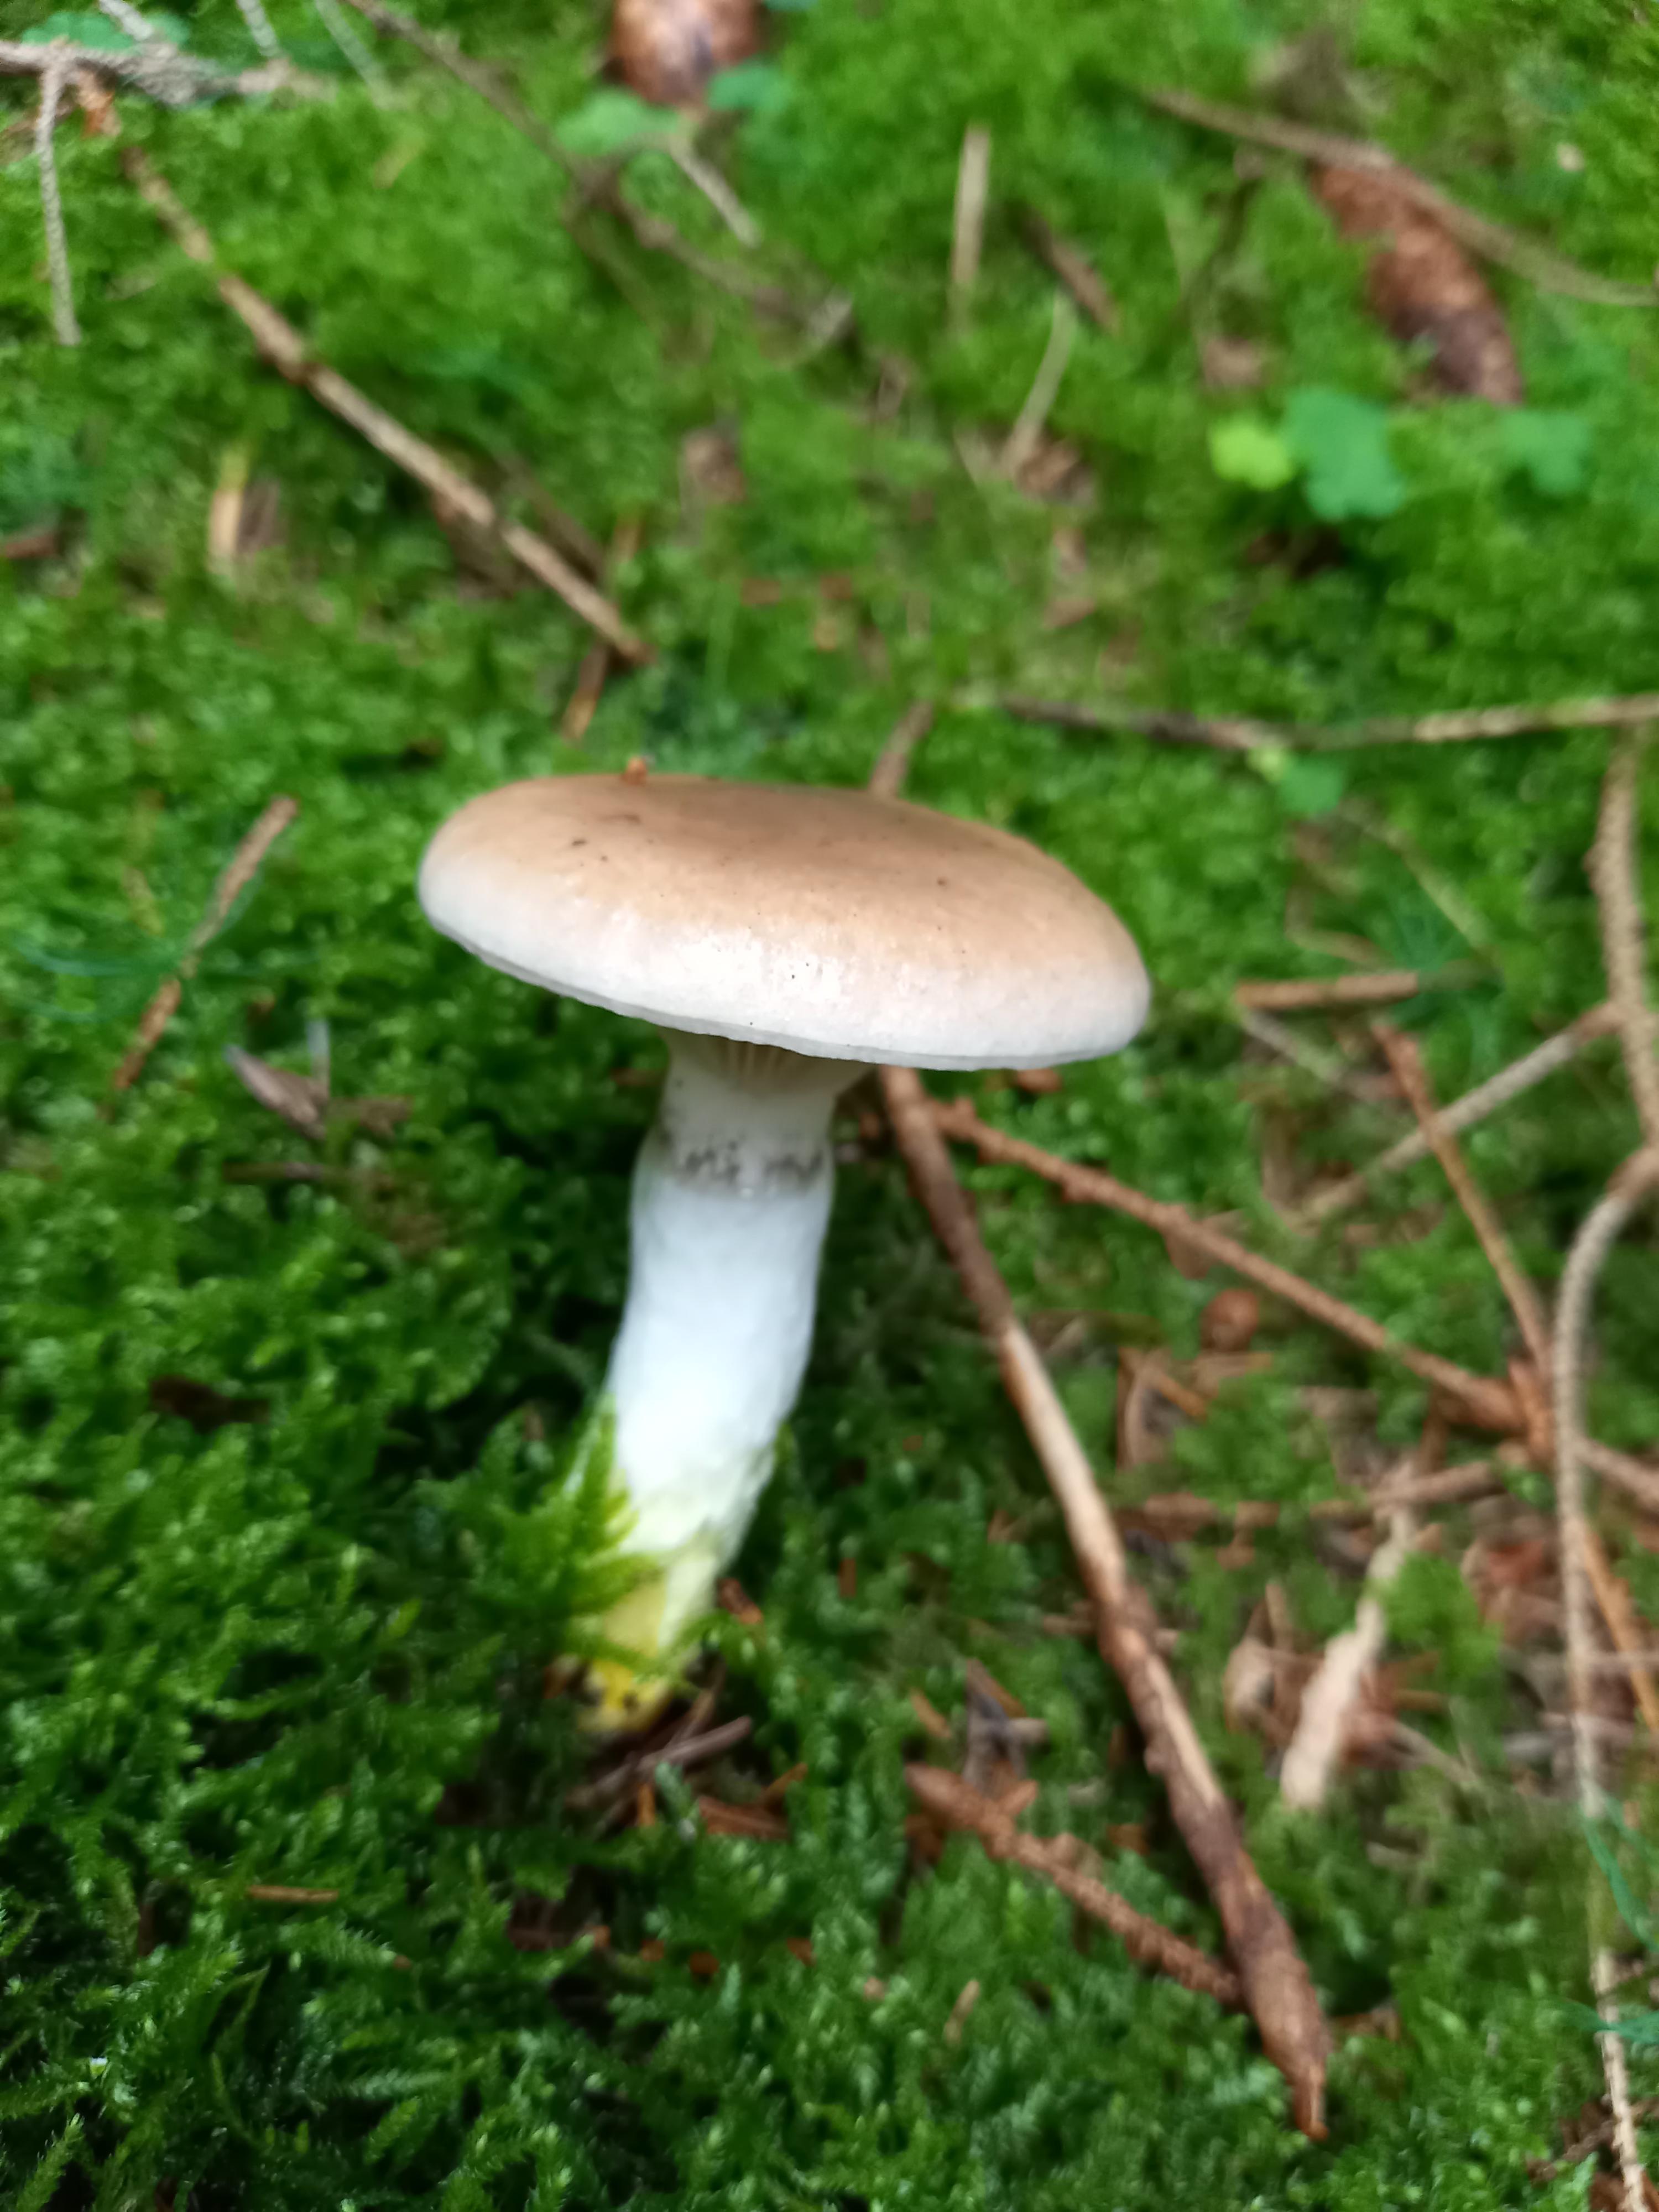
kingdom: Fungi
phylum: Basidiomycota
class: Agaricomycetes
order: Boletales
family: Gomphidiaceae
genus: Gomphidius
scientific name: Gomphidius glutinosus
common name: grå slimslør
